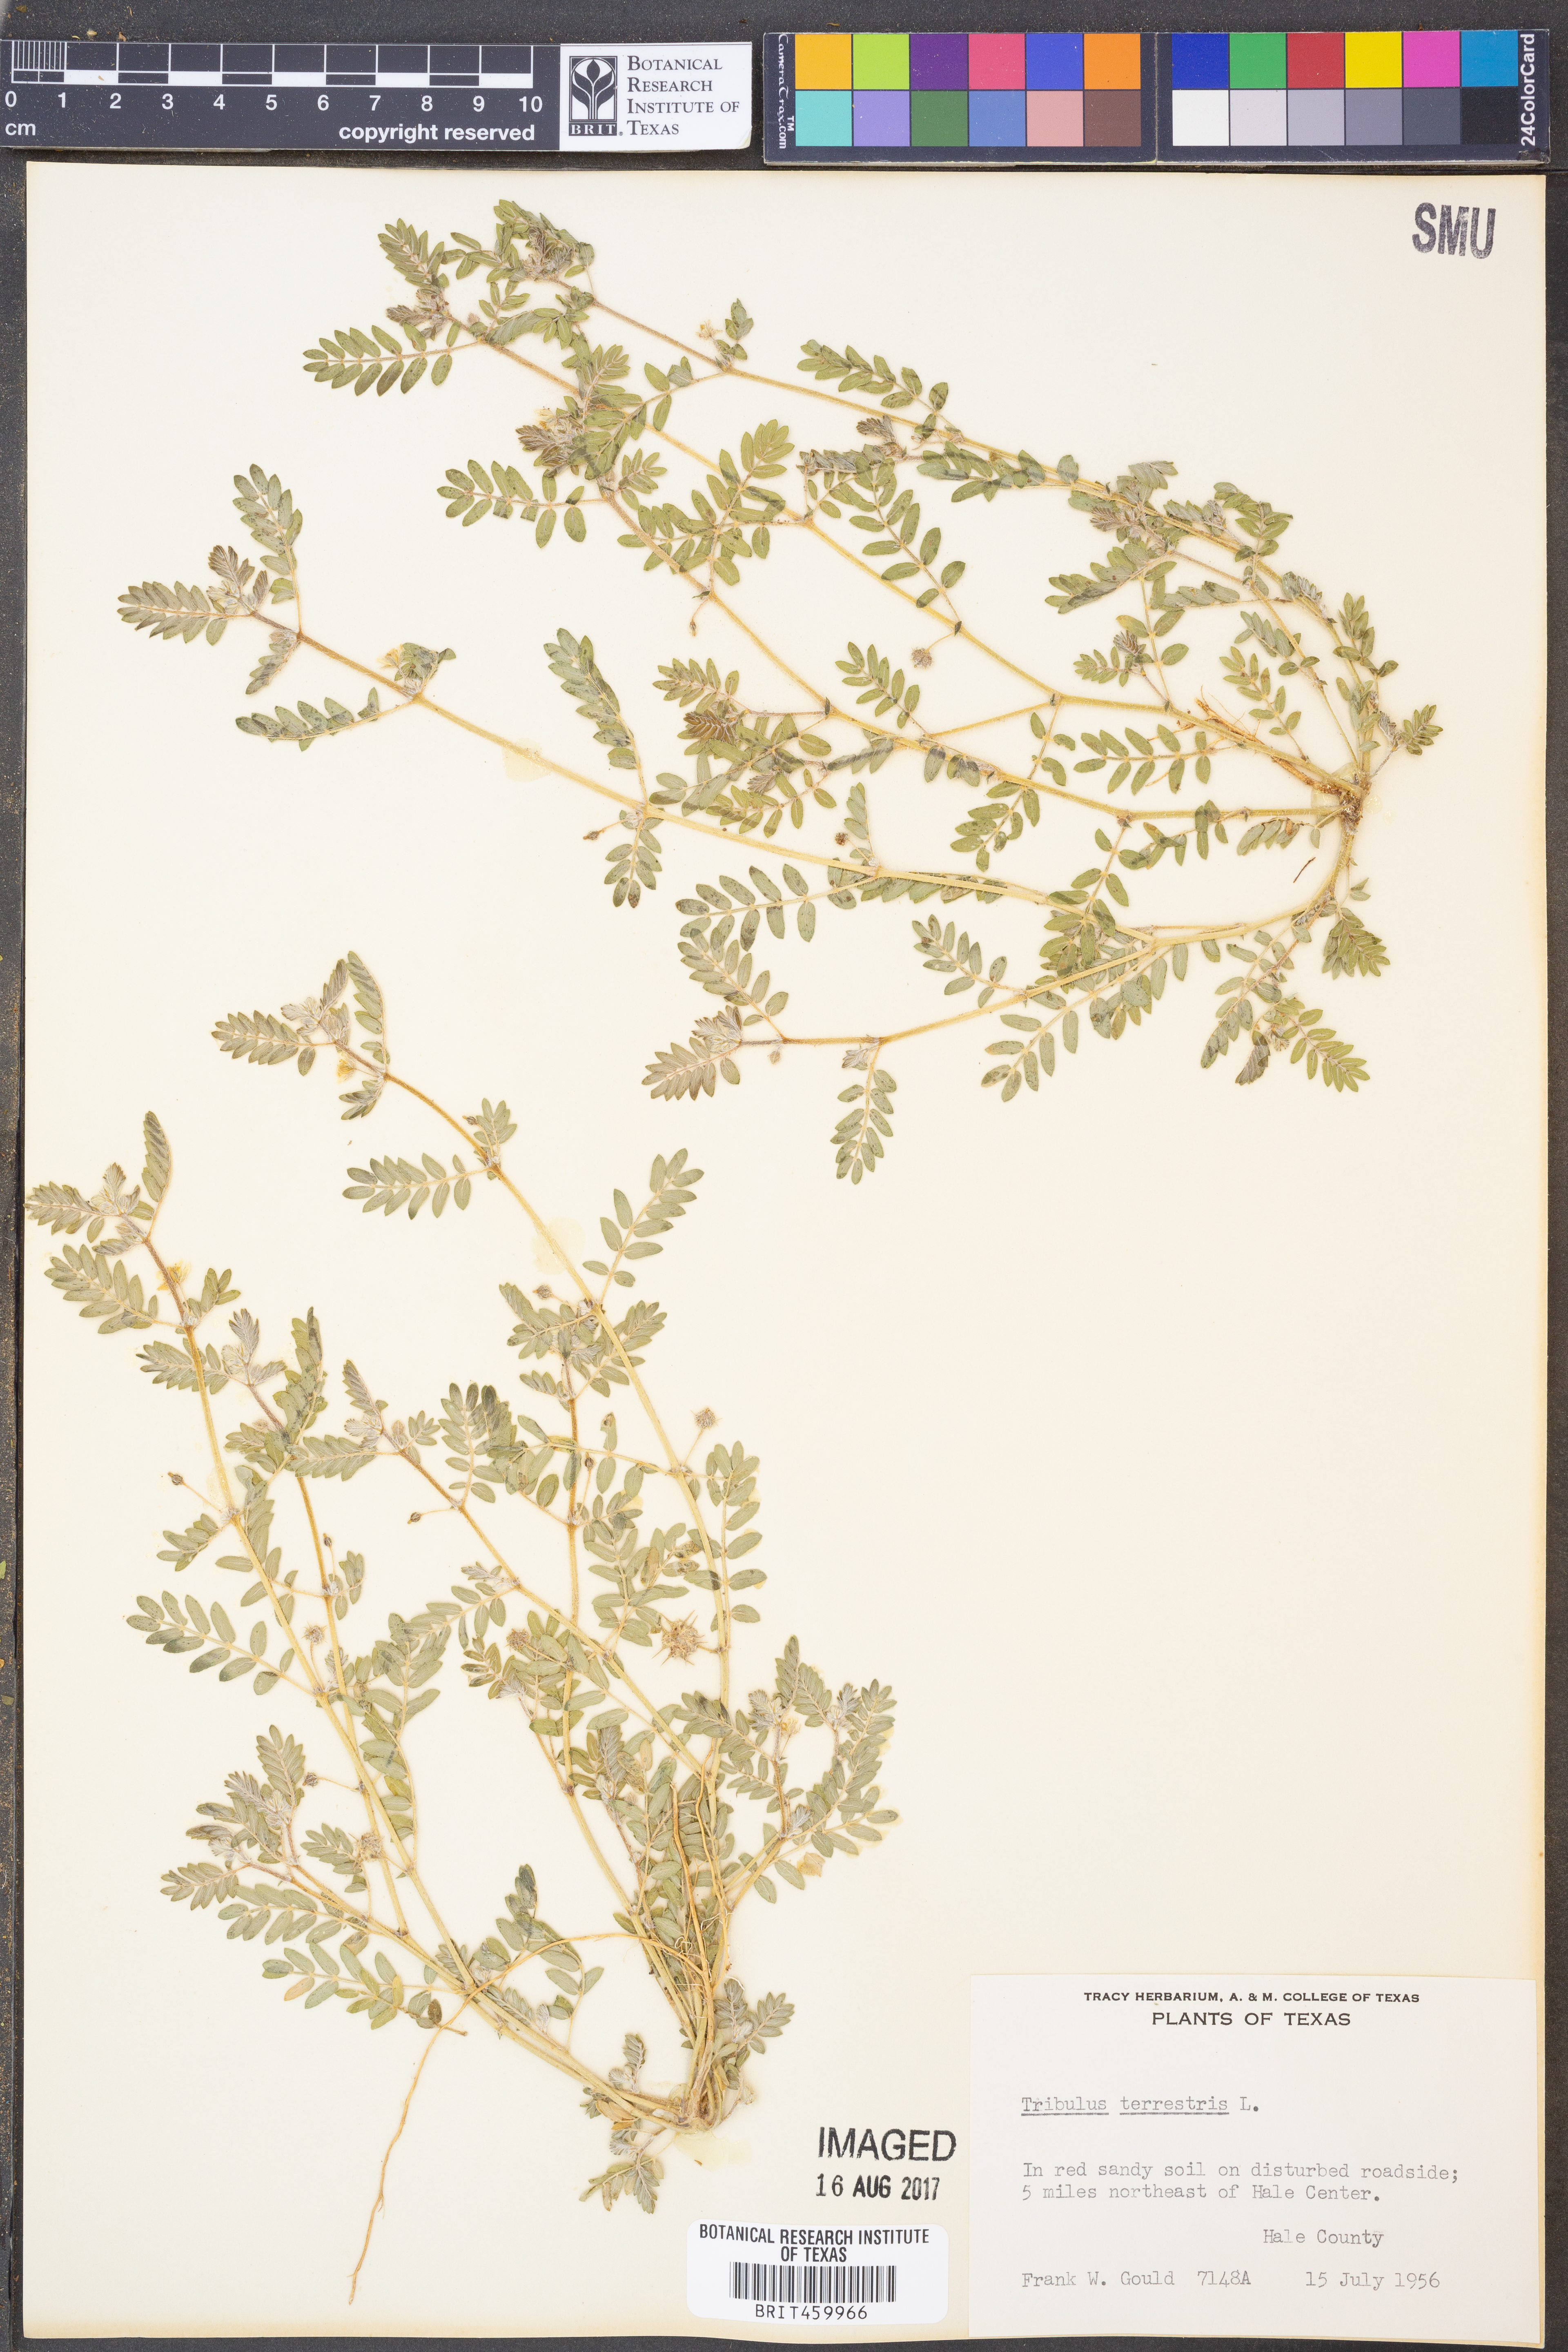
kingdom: Plantae
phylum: Tracheophyta
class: Magnoliopsida
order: Zygophyllales
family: Zygophyllaceae
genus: Tribulus
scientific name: Tribulus terrestris
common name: Puncturevine
